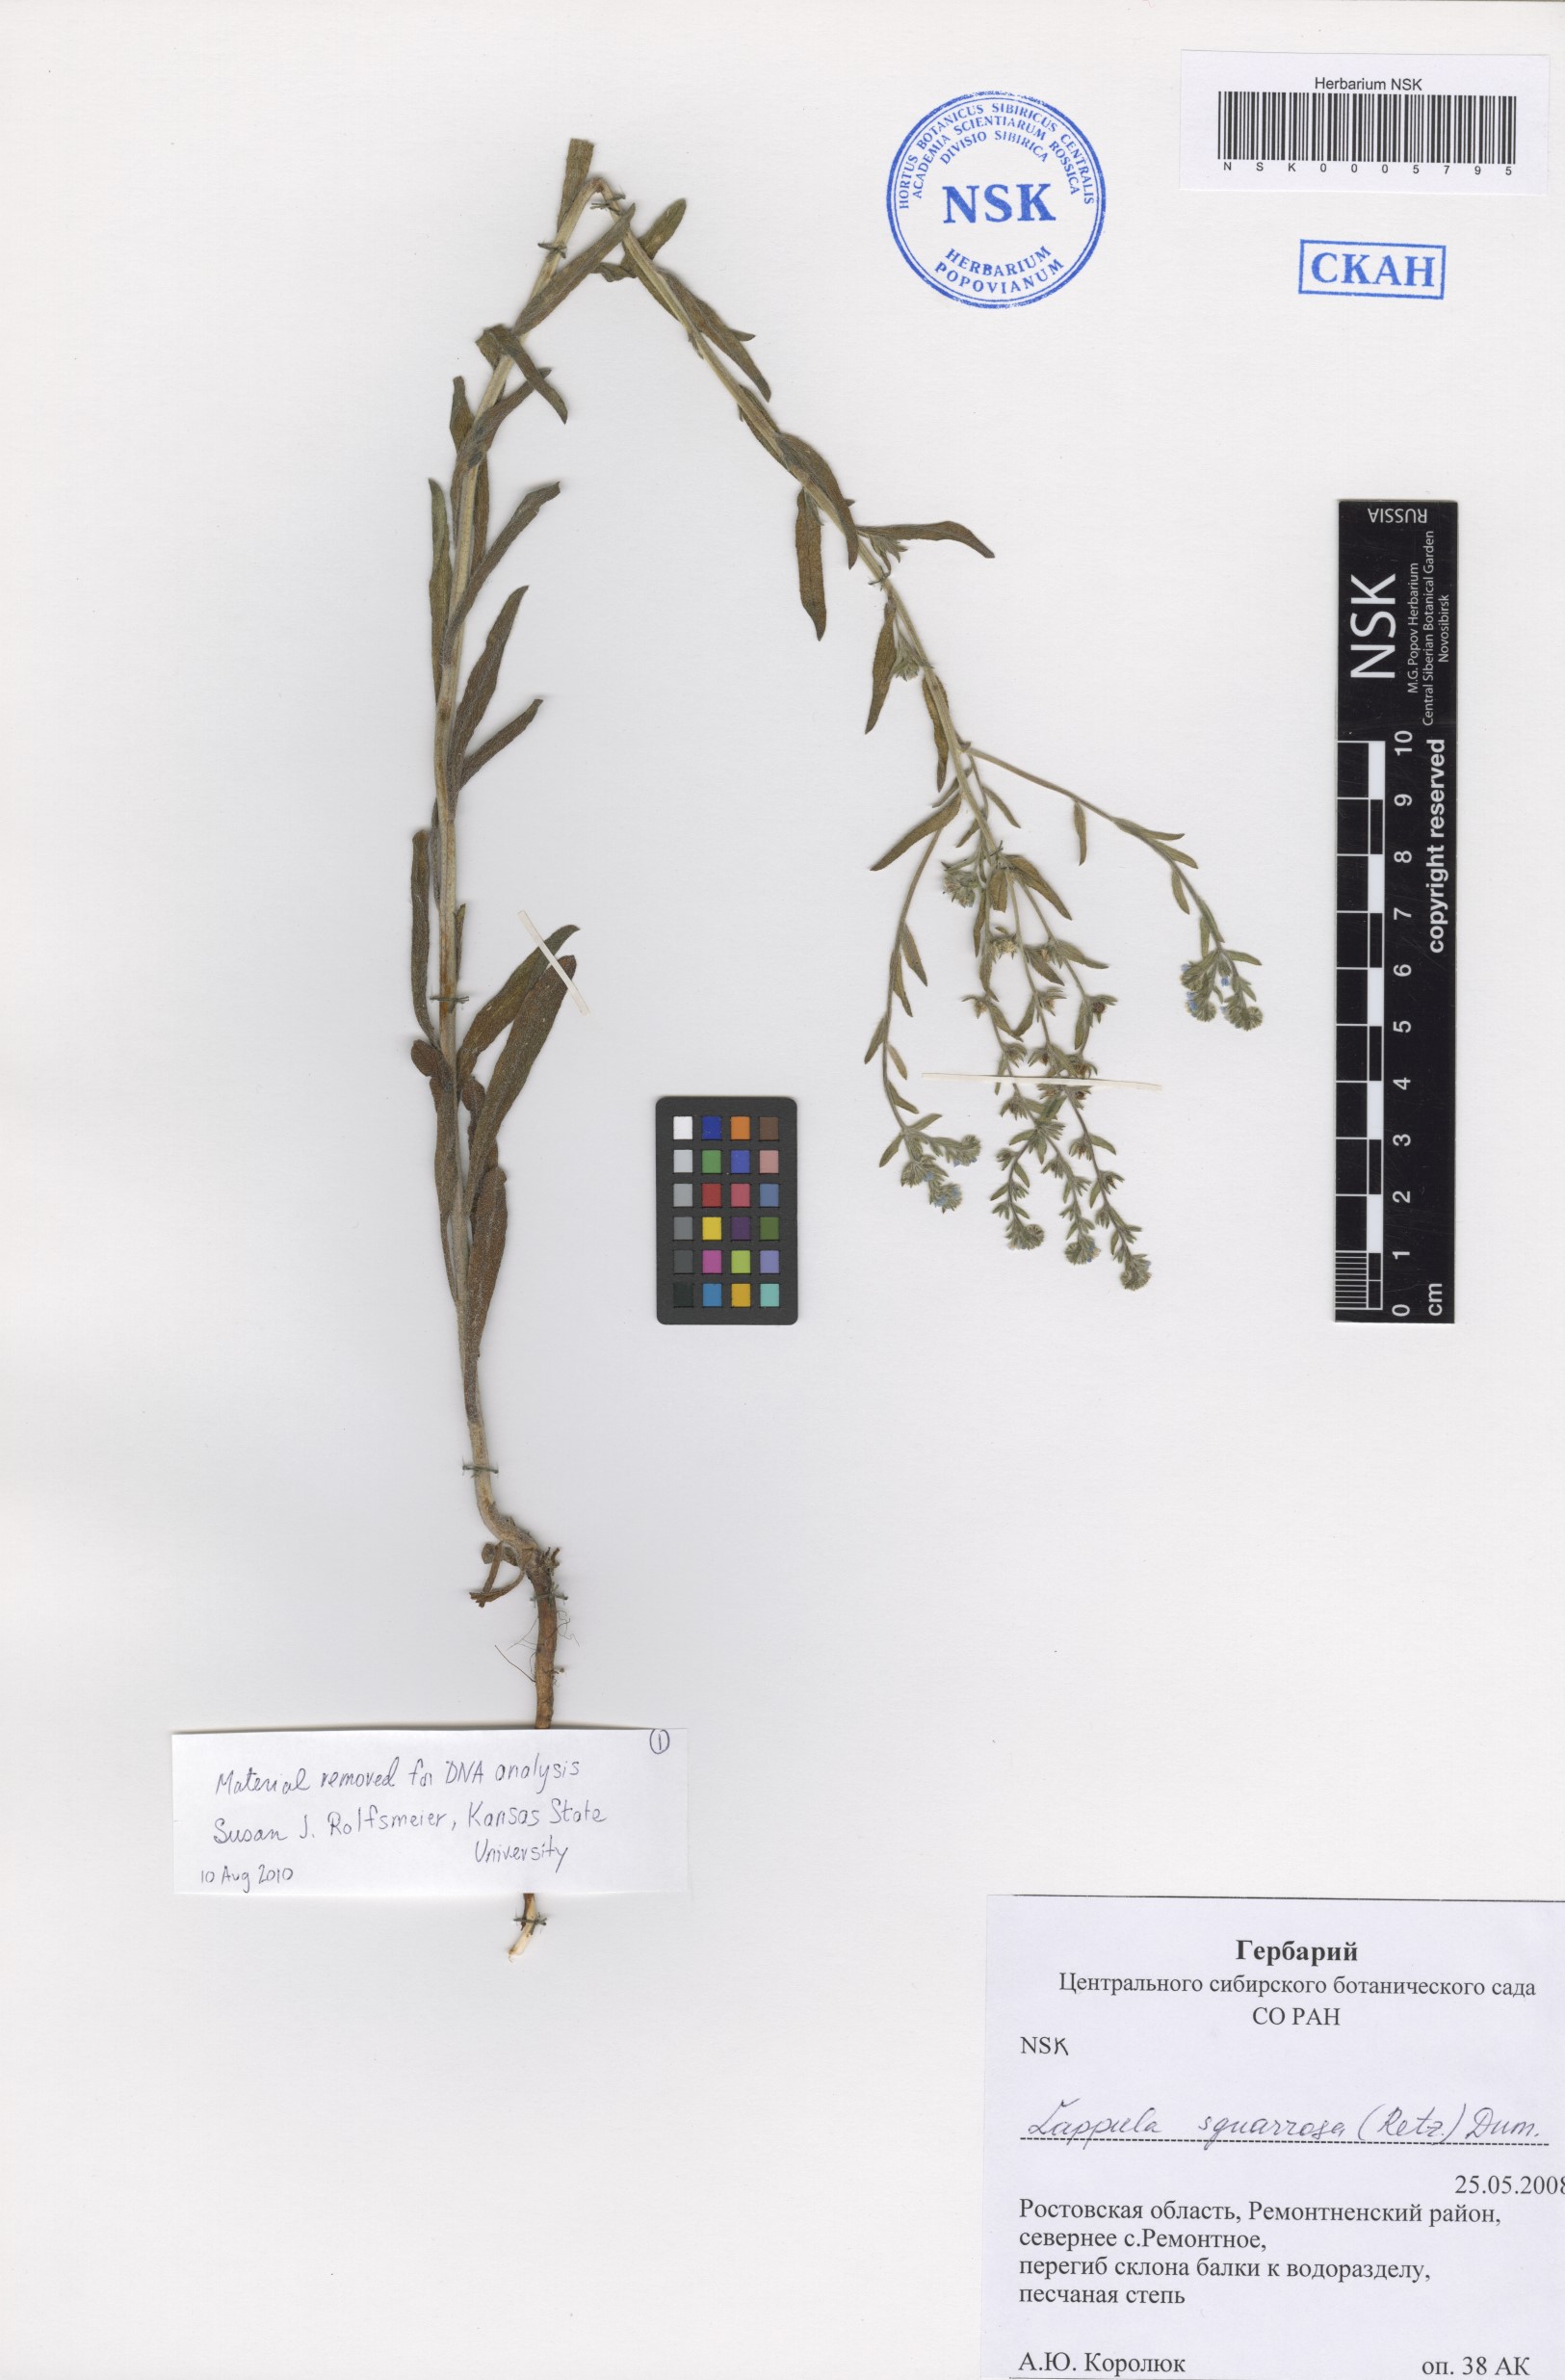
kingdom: Plantae
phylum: Tracheophyta
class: Magnoliopsida
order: Boraginales
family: Boraginaceae
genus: Lappula
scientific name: Lappula squarrosa
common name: European stickseed
